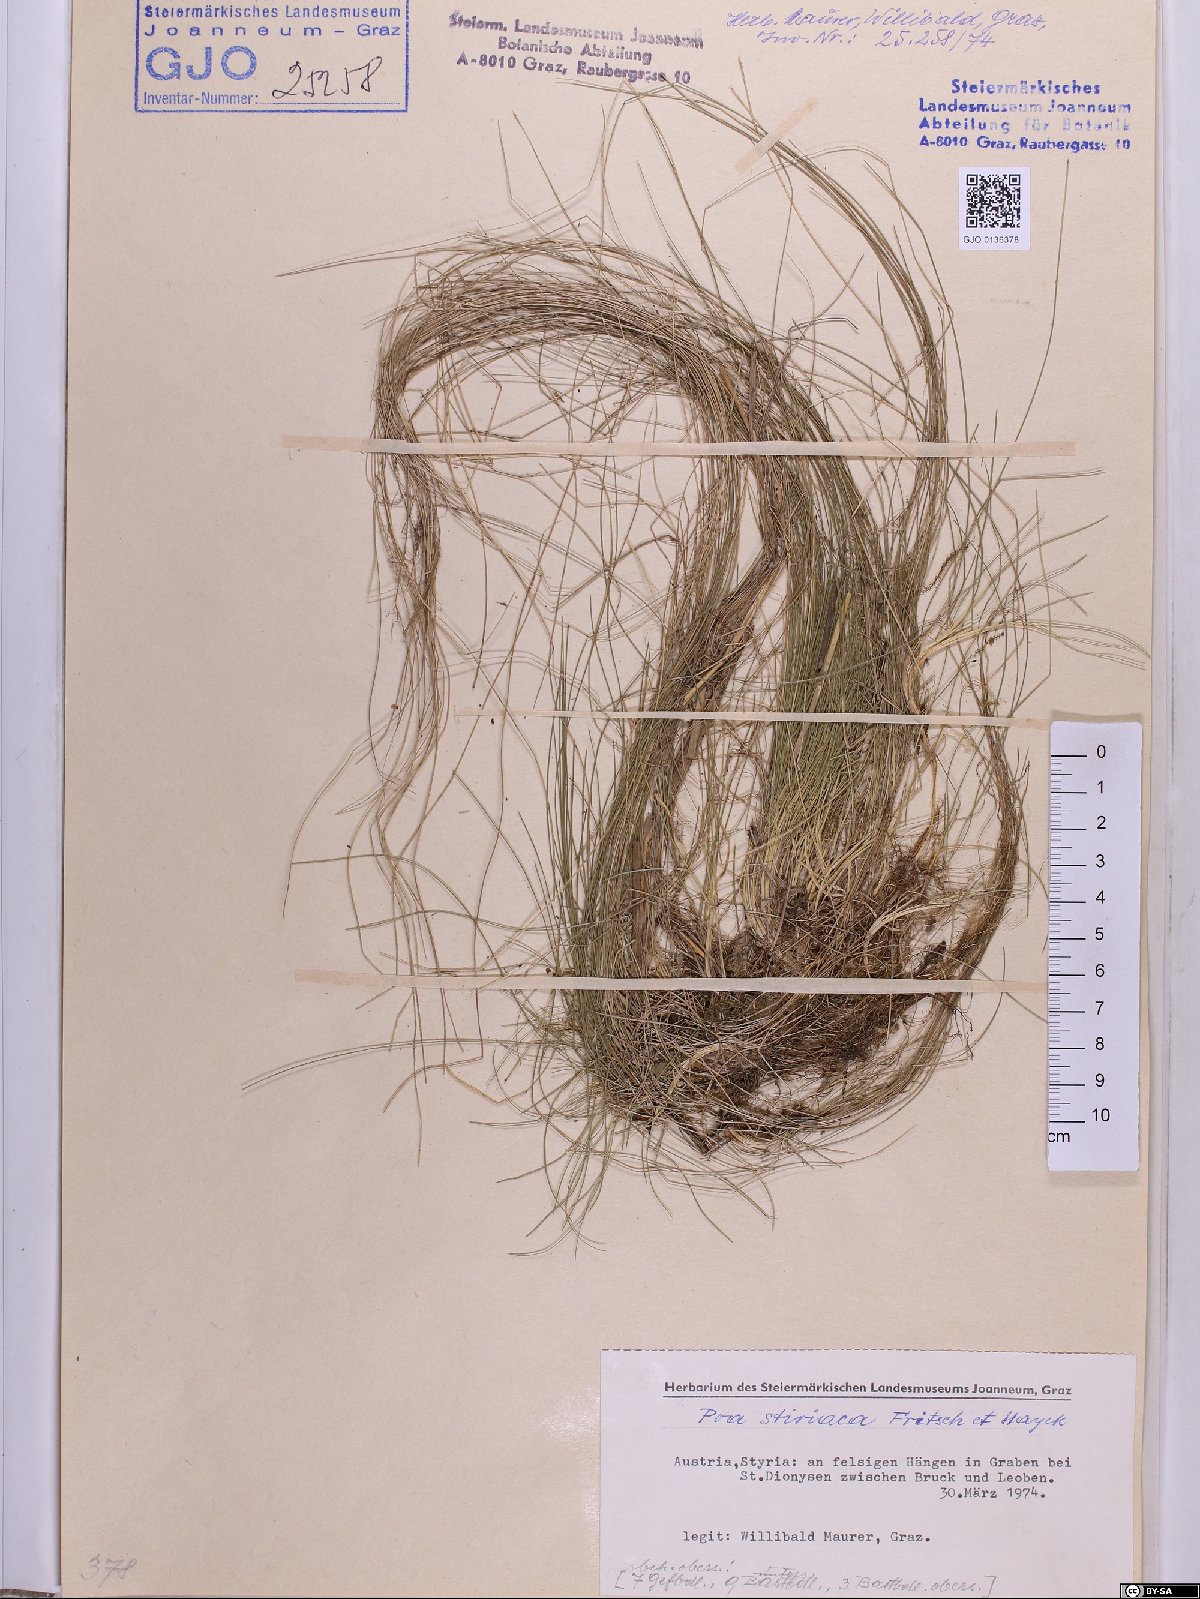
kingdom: Plantae
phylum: Tracheophyta
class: Liliopsida
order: Poales
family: Poaceae
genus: Poa
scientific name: Poa stiriaca
